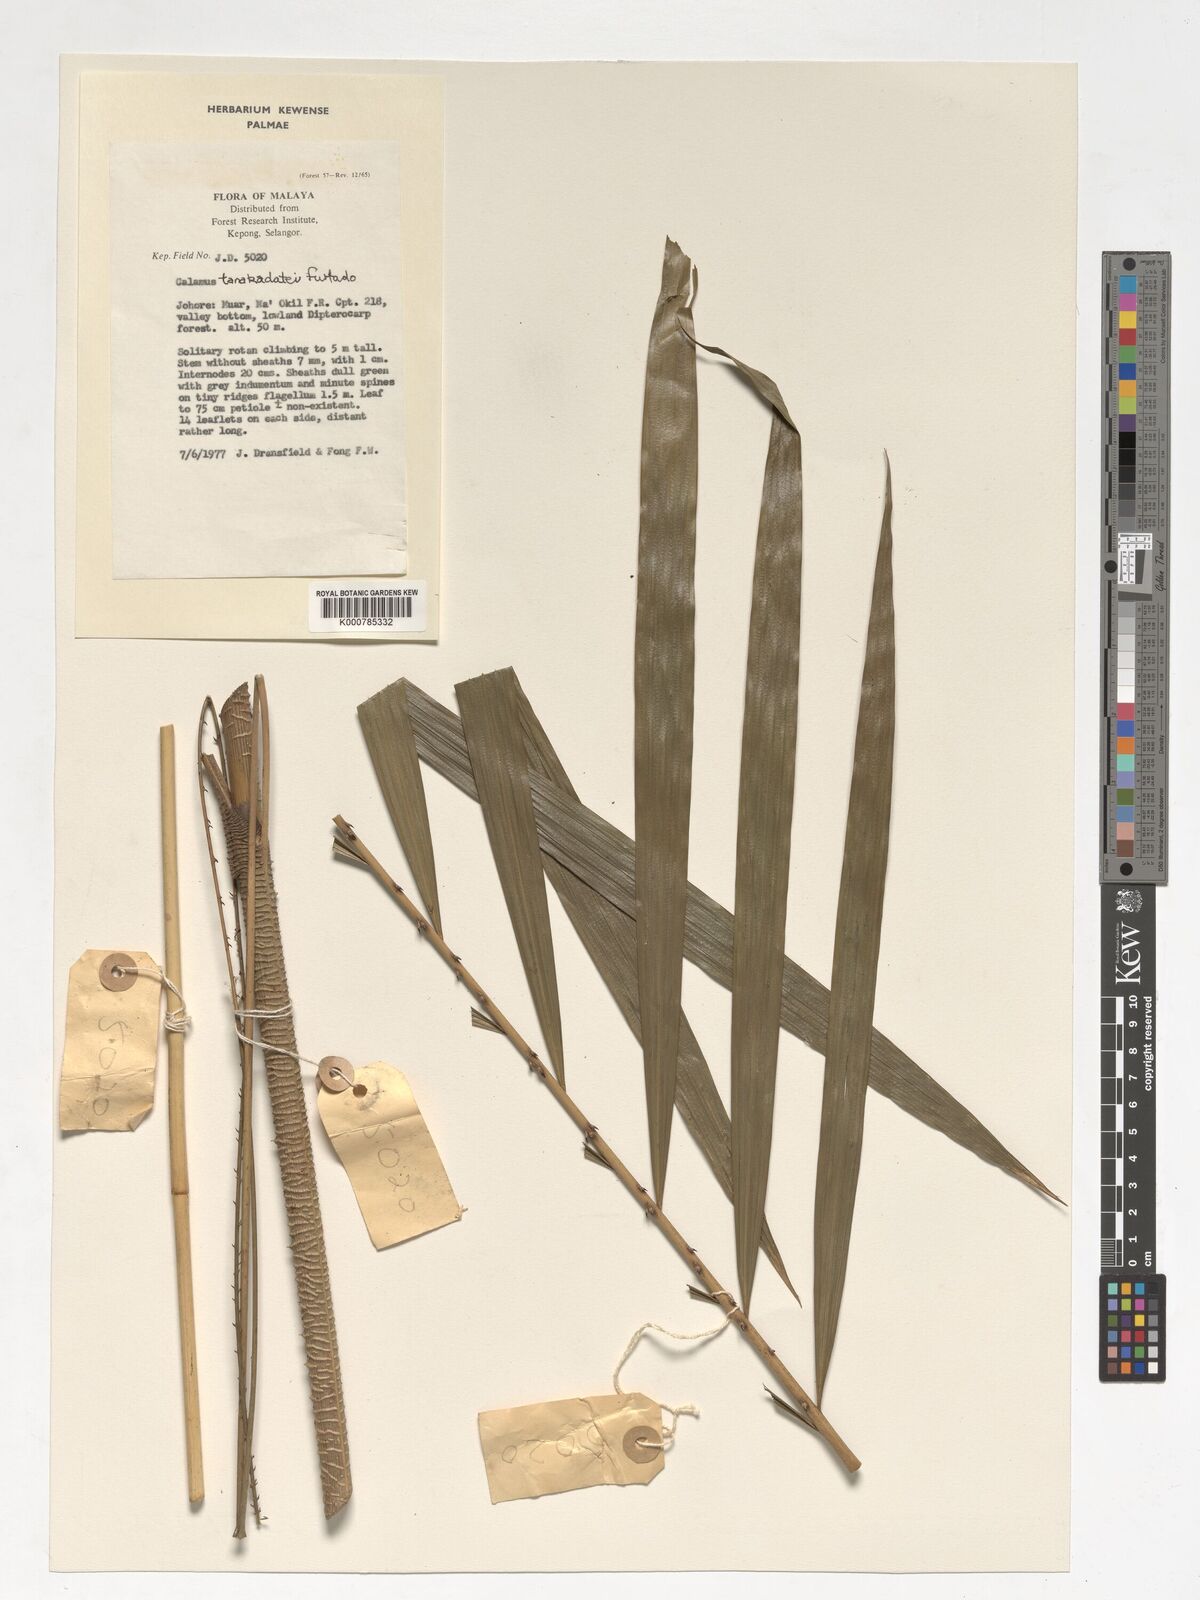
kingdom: Plantae
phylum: Tracheophyta
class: Liliopsida
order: Arecales
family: Arecaceae
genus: Calamus
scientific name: Calamus ruvidus
